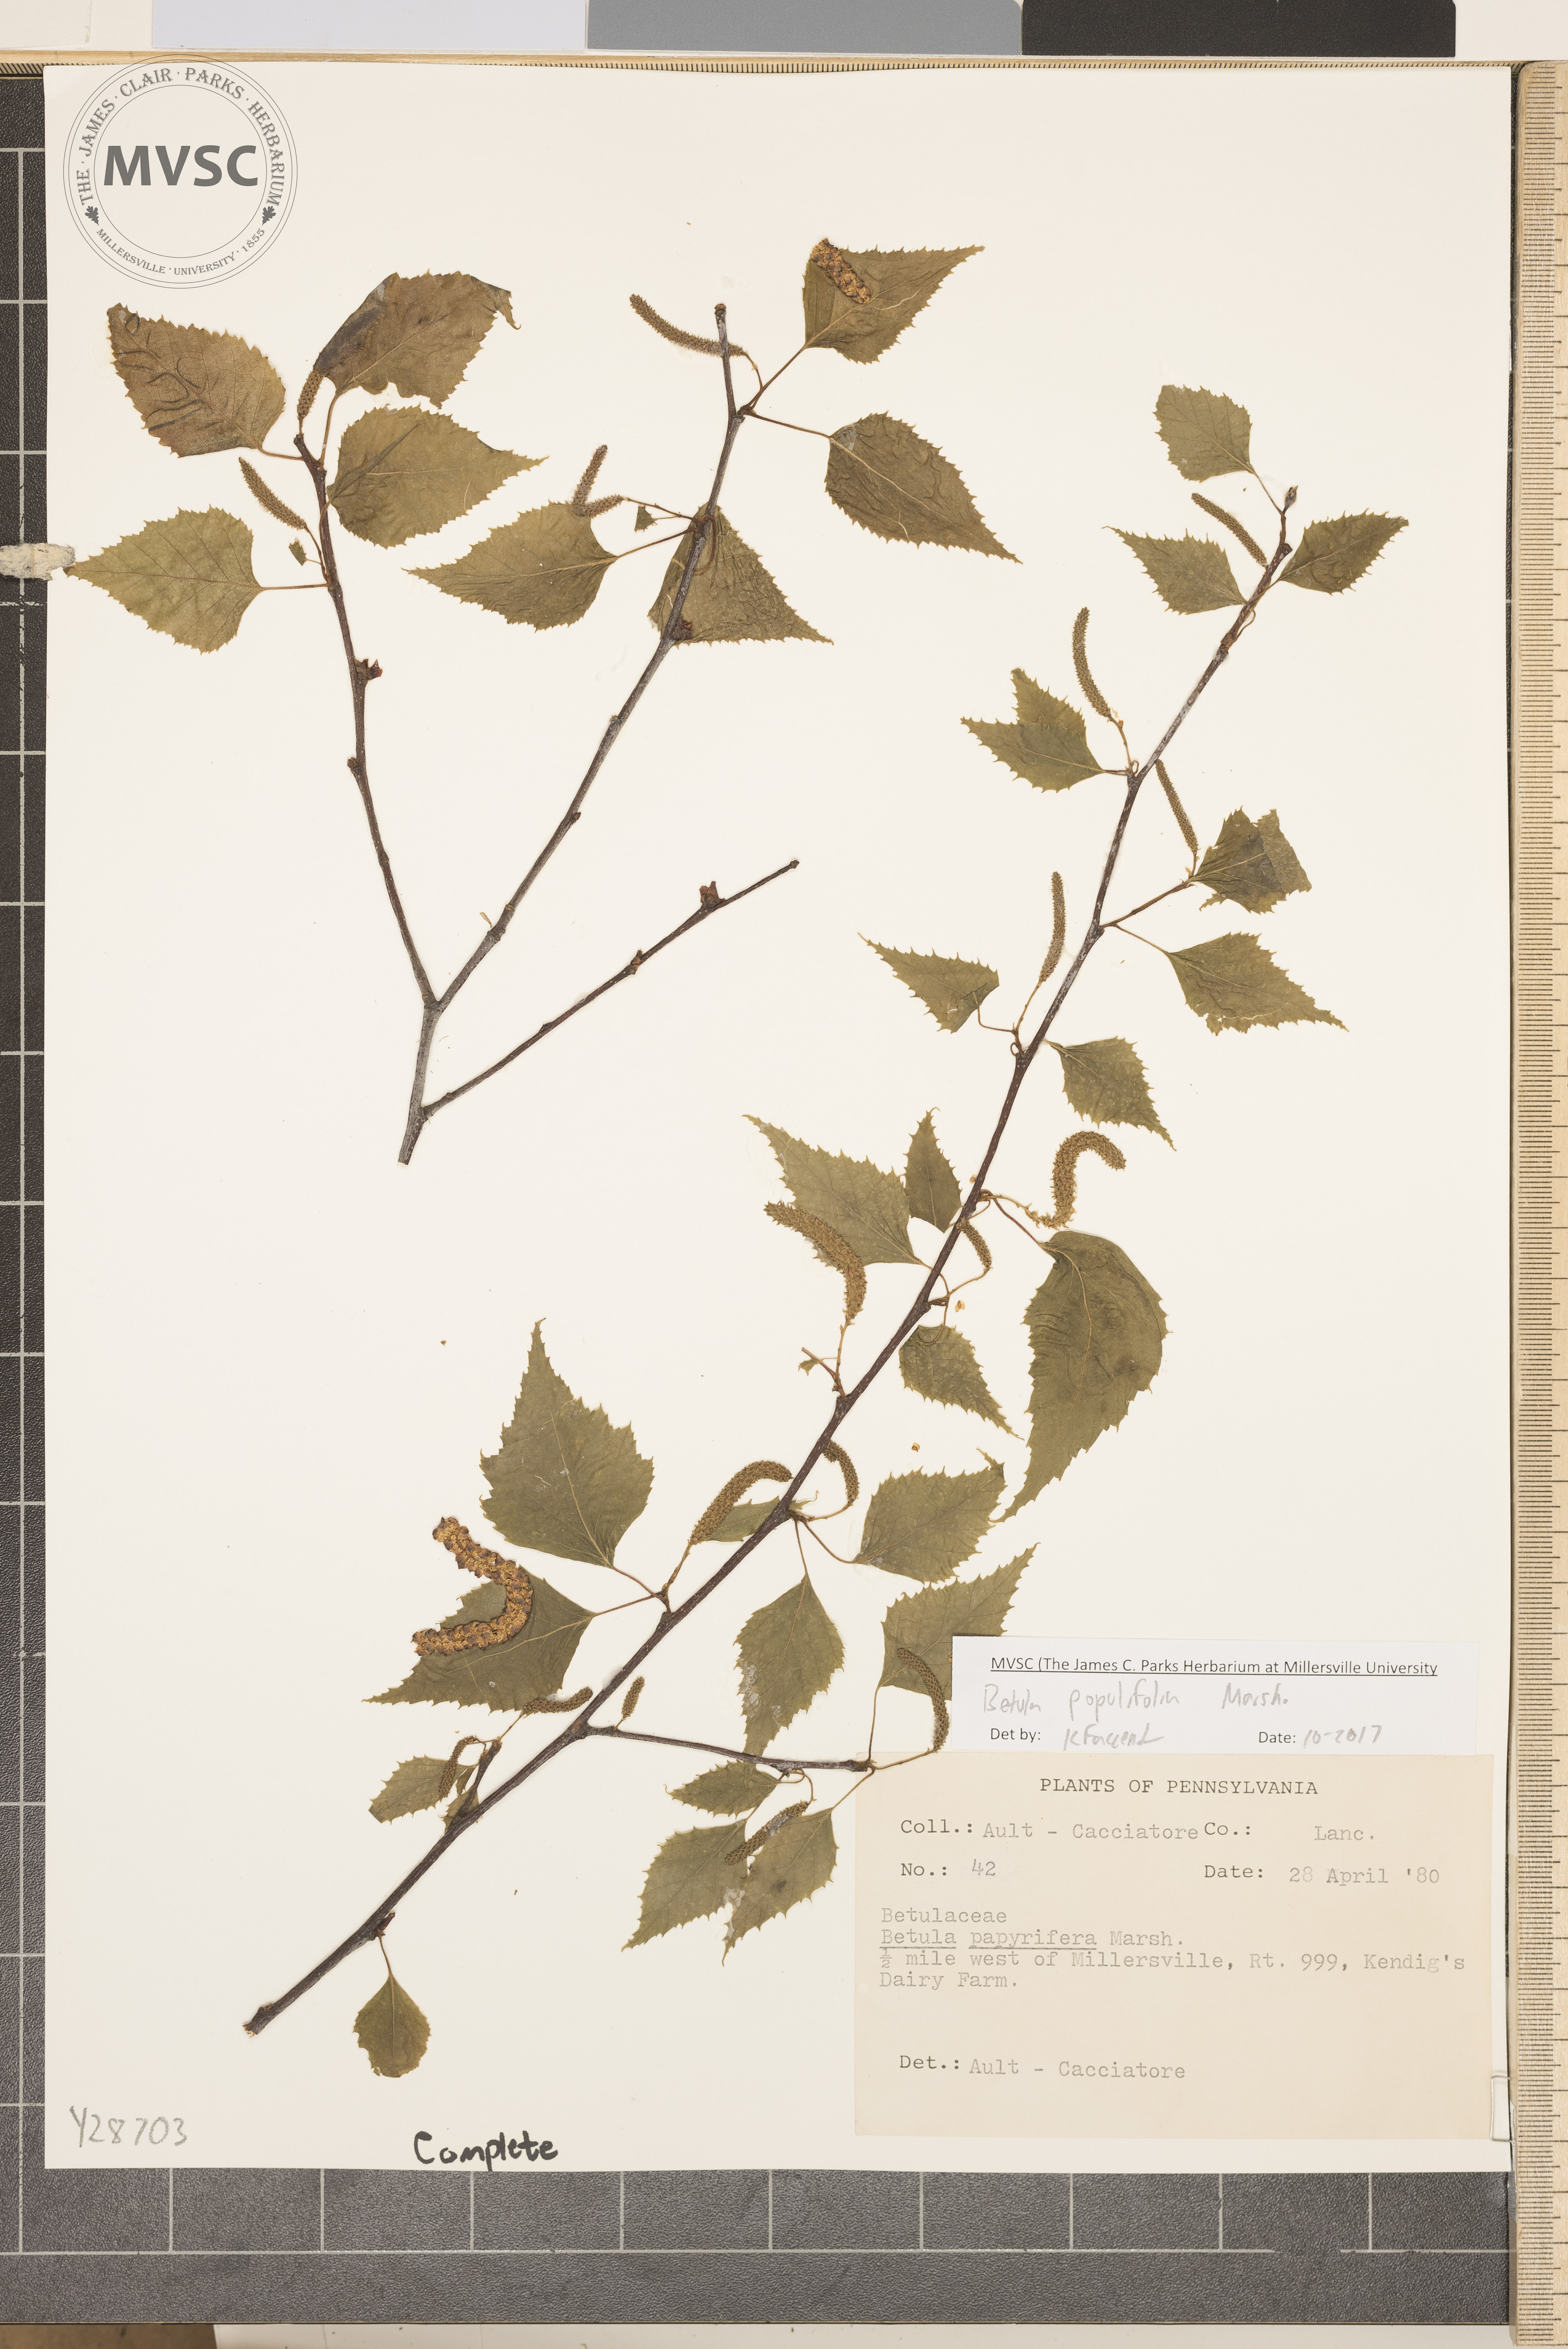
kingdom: Plantae
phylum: Tracheophyta
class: Magnoliopsida
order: Fagales
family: Betulaceae
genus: Betula
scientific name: Betula populifolia
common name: Gray birch
